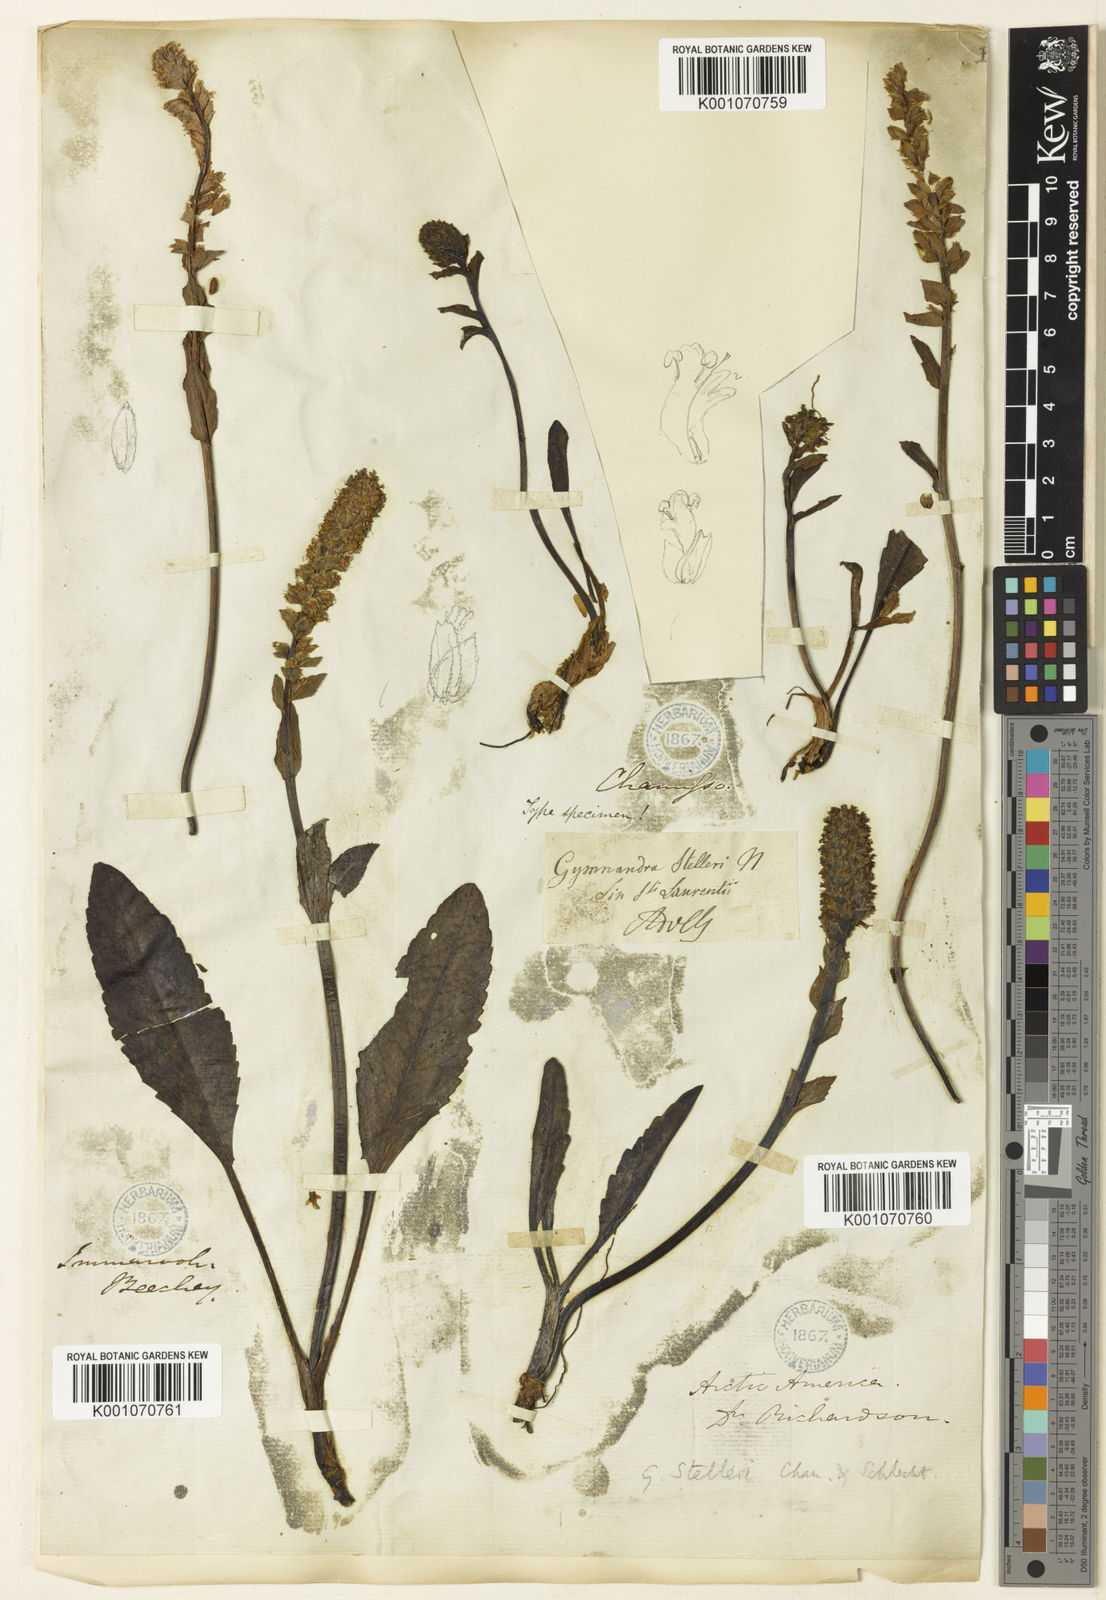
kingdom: Plantae
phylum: Tracheophyta
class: Magnoliopsida
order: Lamiales
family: Plantaginaceae
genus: Lagotis
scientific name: Lagotis glauca
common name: Glaucous weaselsnout
